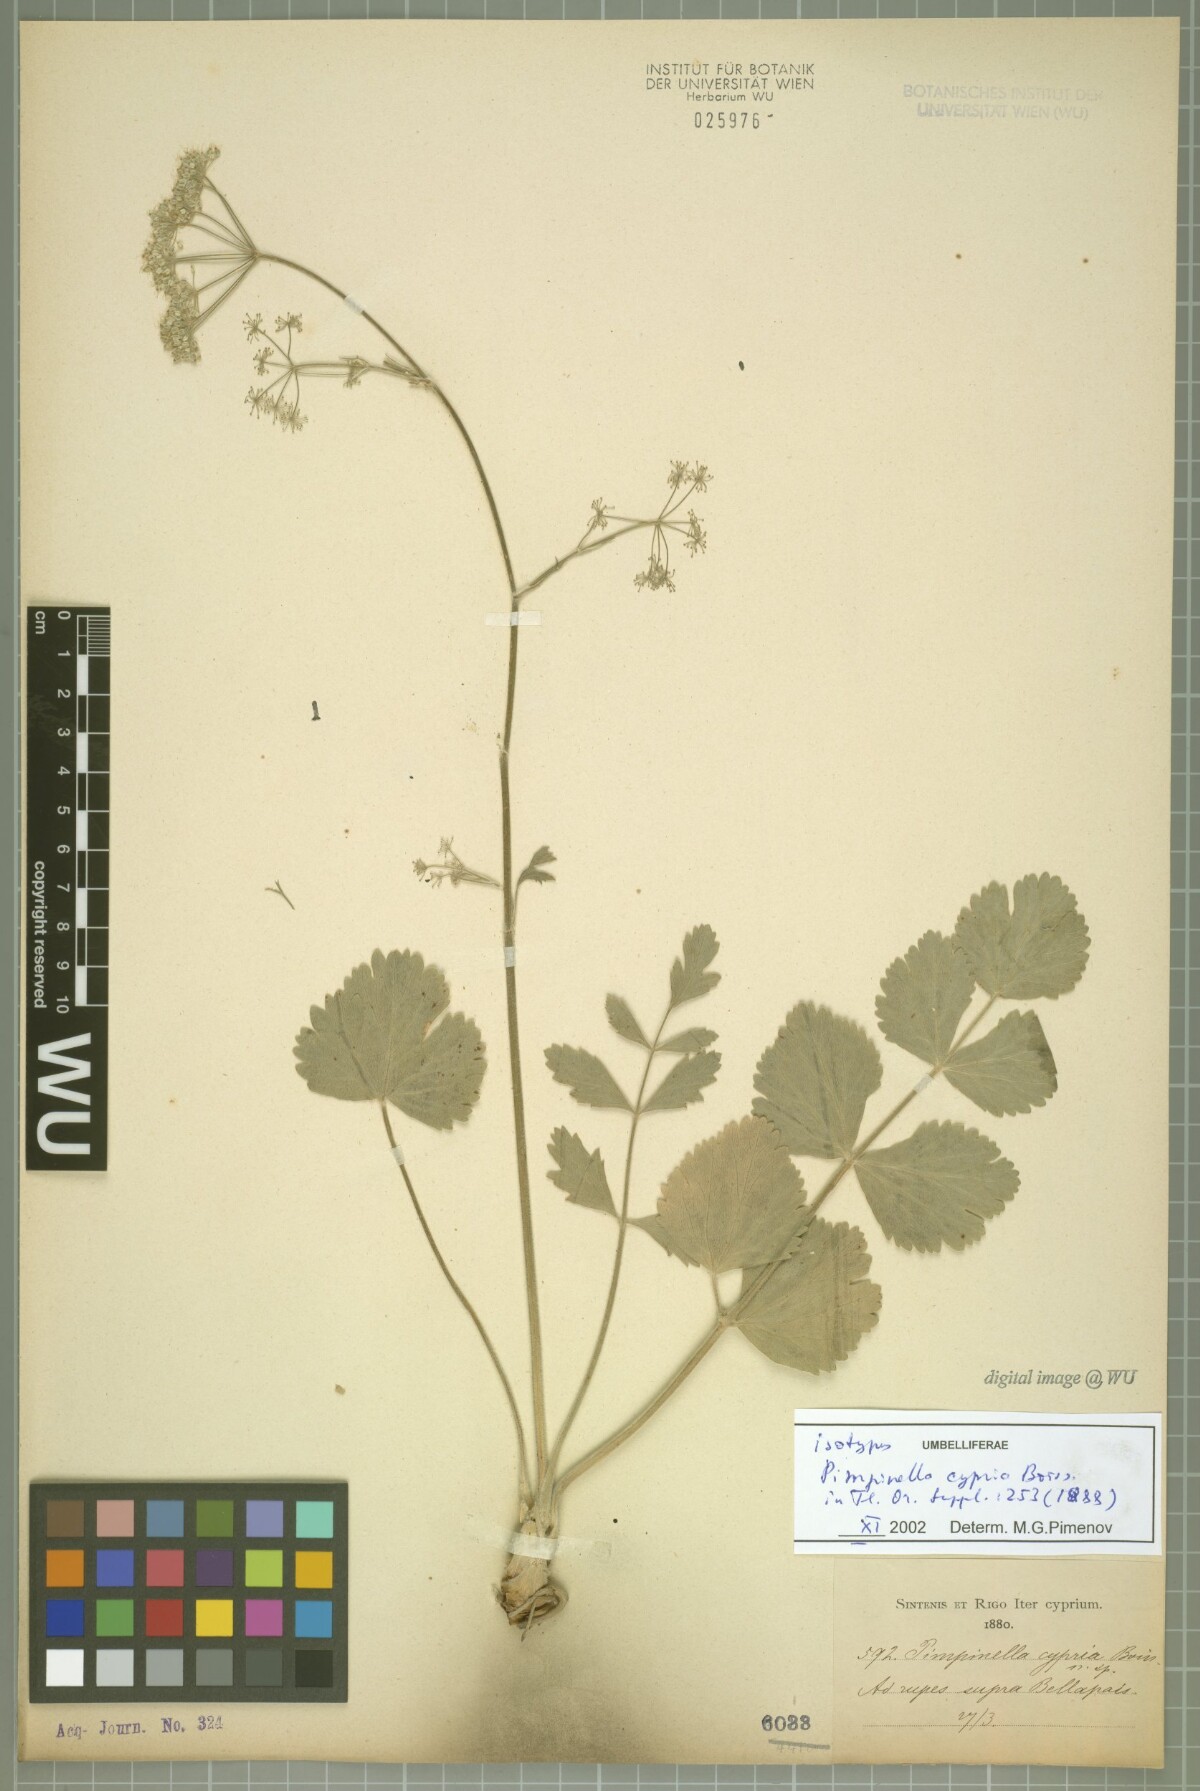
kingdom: Plantae
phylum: Tracheophyta
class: Magnoliopsida
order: Apiales
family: Apiaceae
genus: Pimpinella
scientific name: Pimpinella cypria
